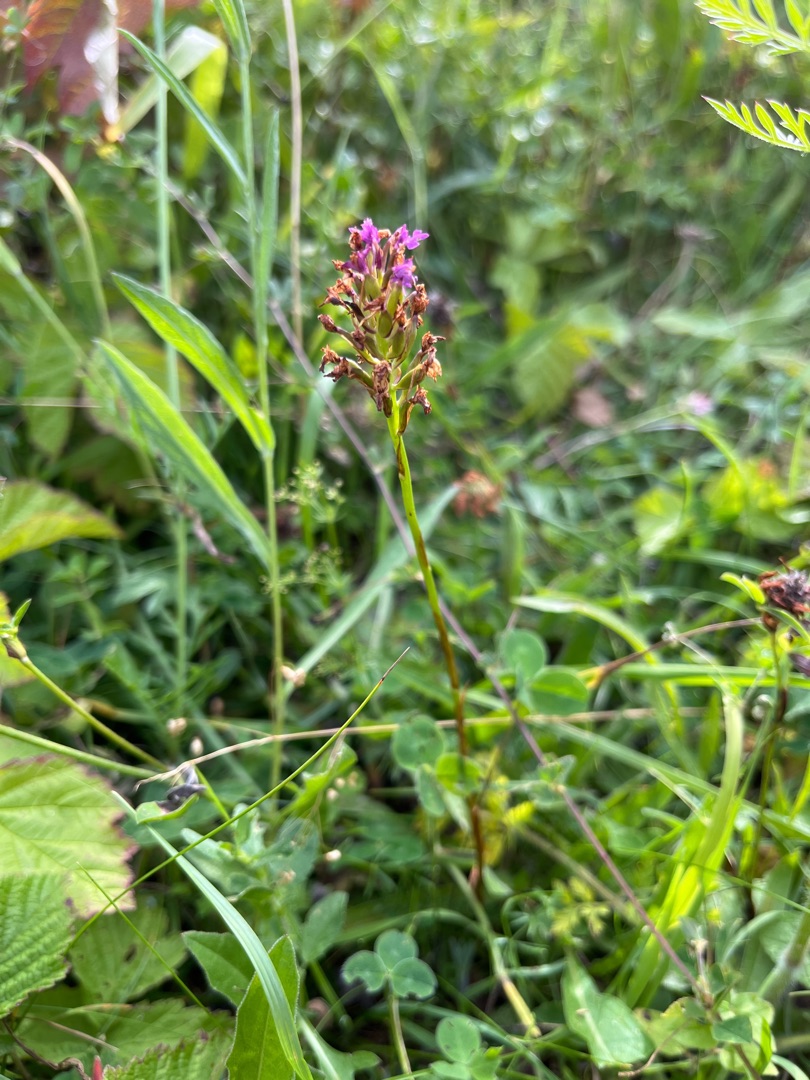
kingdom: Plantae
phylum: Tracheophyta
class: Liliopsida
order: Asparagales
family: Orchidaceae
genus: Anacamptis
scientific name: Anacamptis pyramidalis
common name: Horndrager
